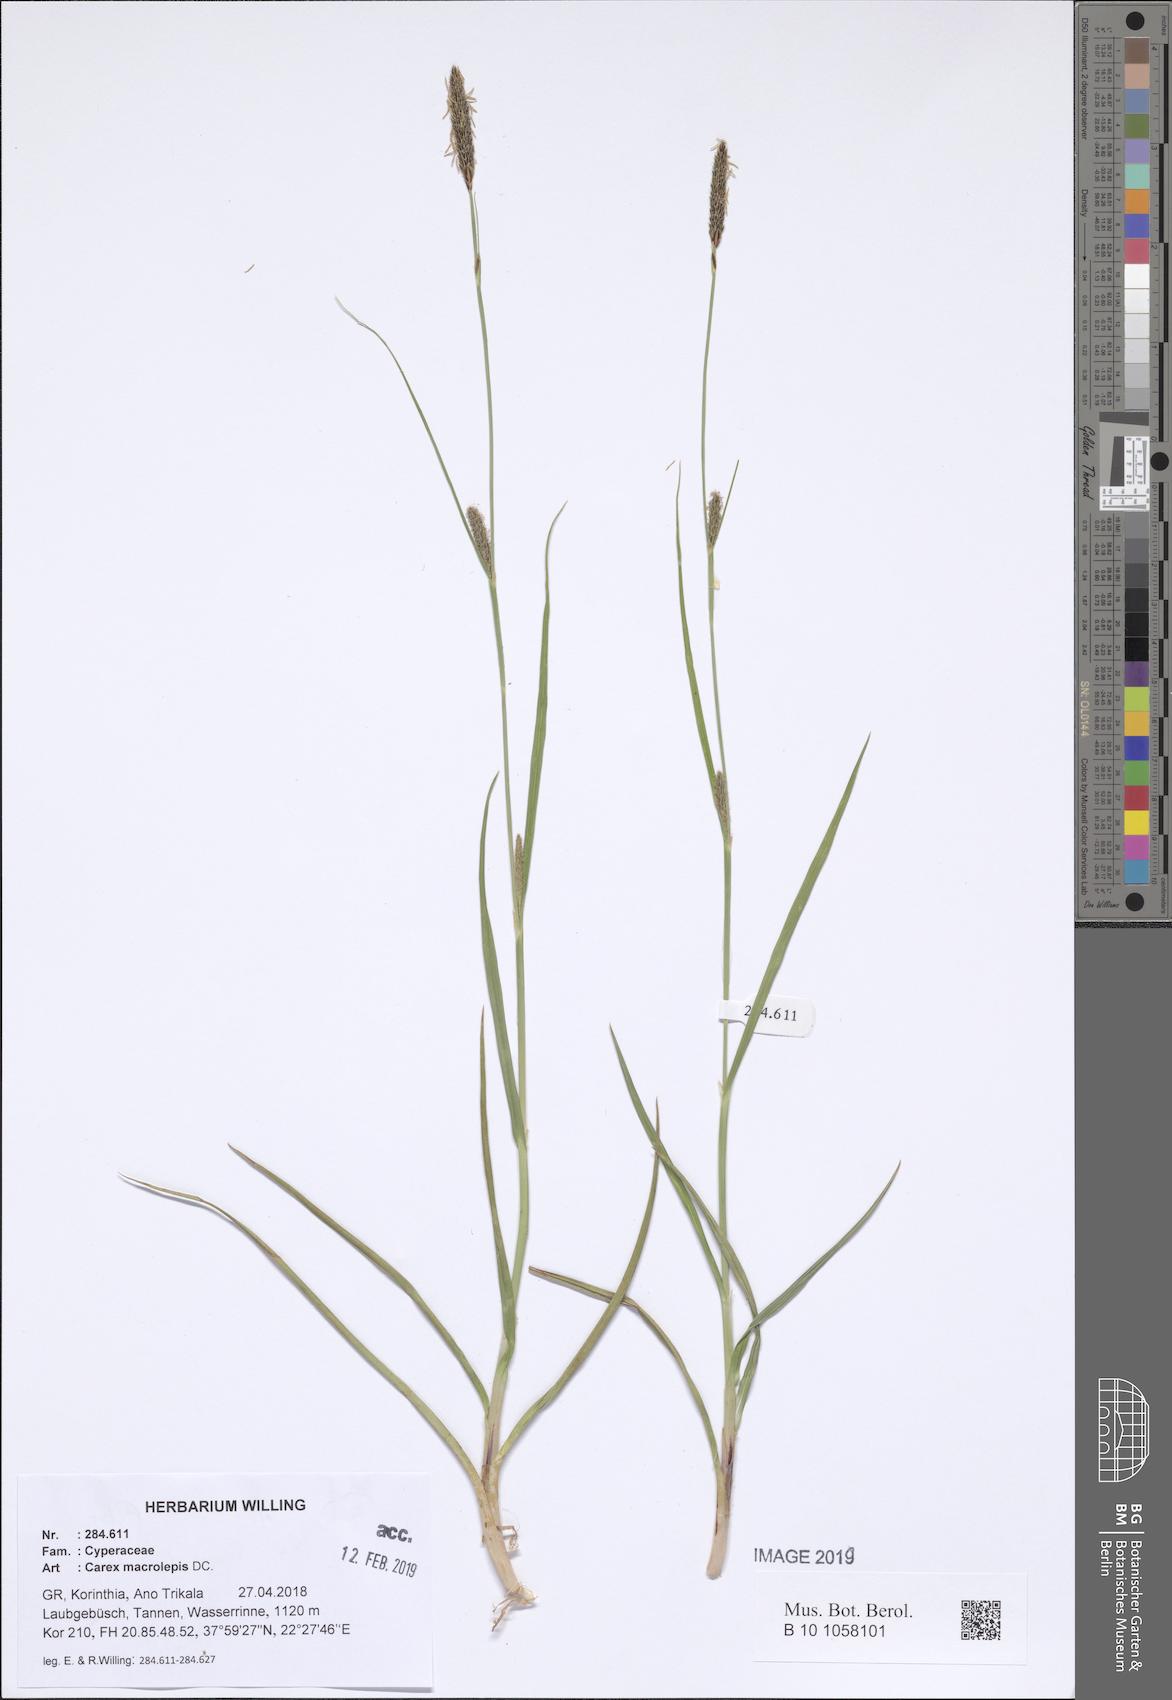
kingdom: Plantae
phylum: Tracheophyta
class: Liliopsida
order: Poales
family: Cyperaceae
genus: Carex
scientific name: Carex macrolepis
